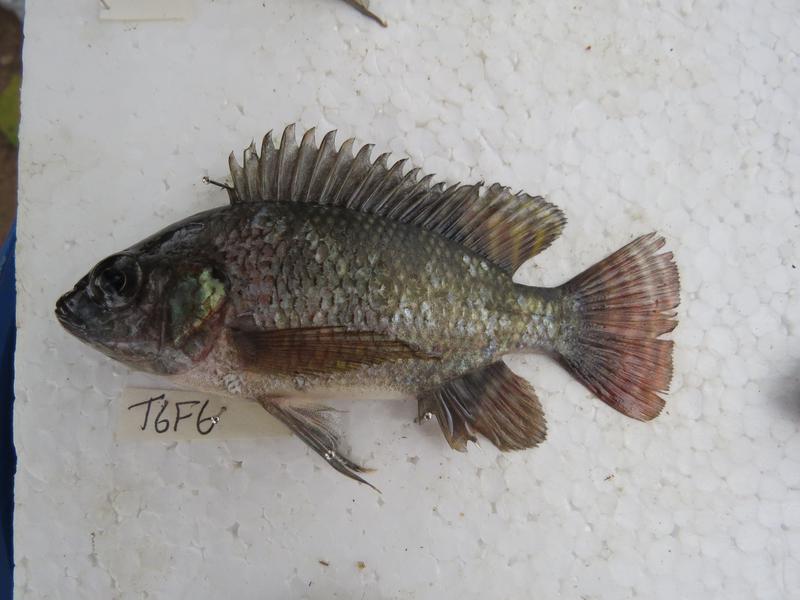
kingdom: Animalia
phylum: Chordata
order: Perciformes
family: Cichlidae
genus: Oreochromis
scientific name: Oreochromis niloticus
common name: Nile tilapia
